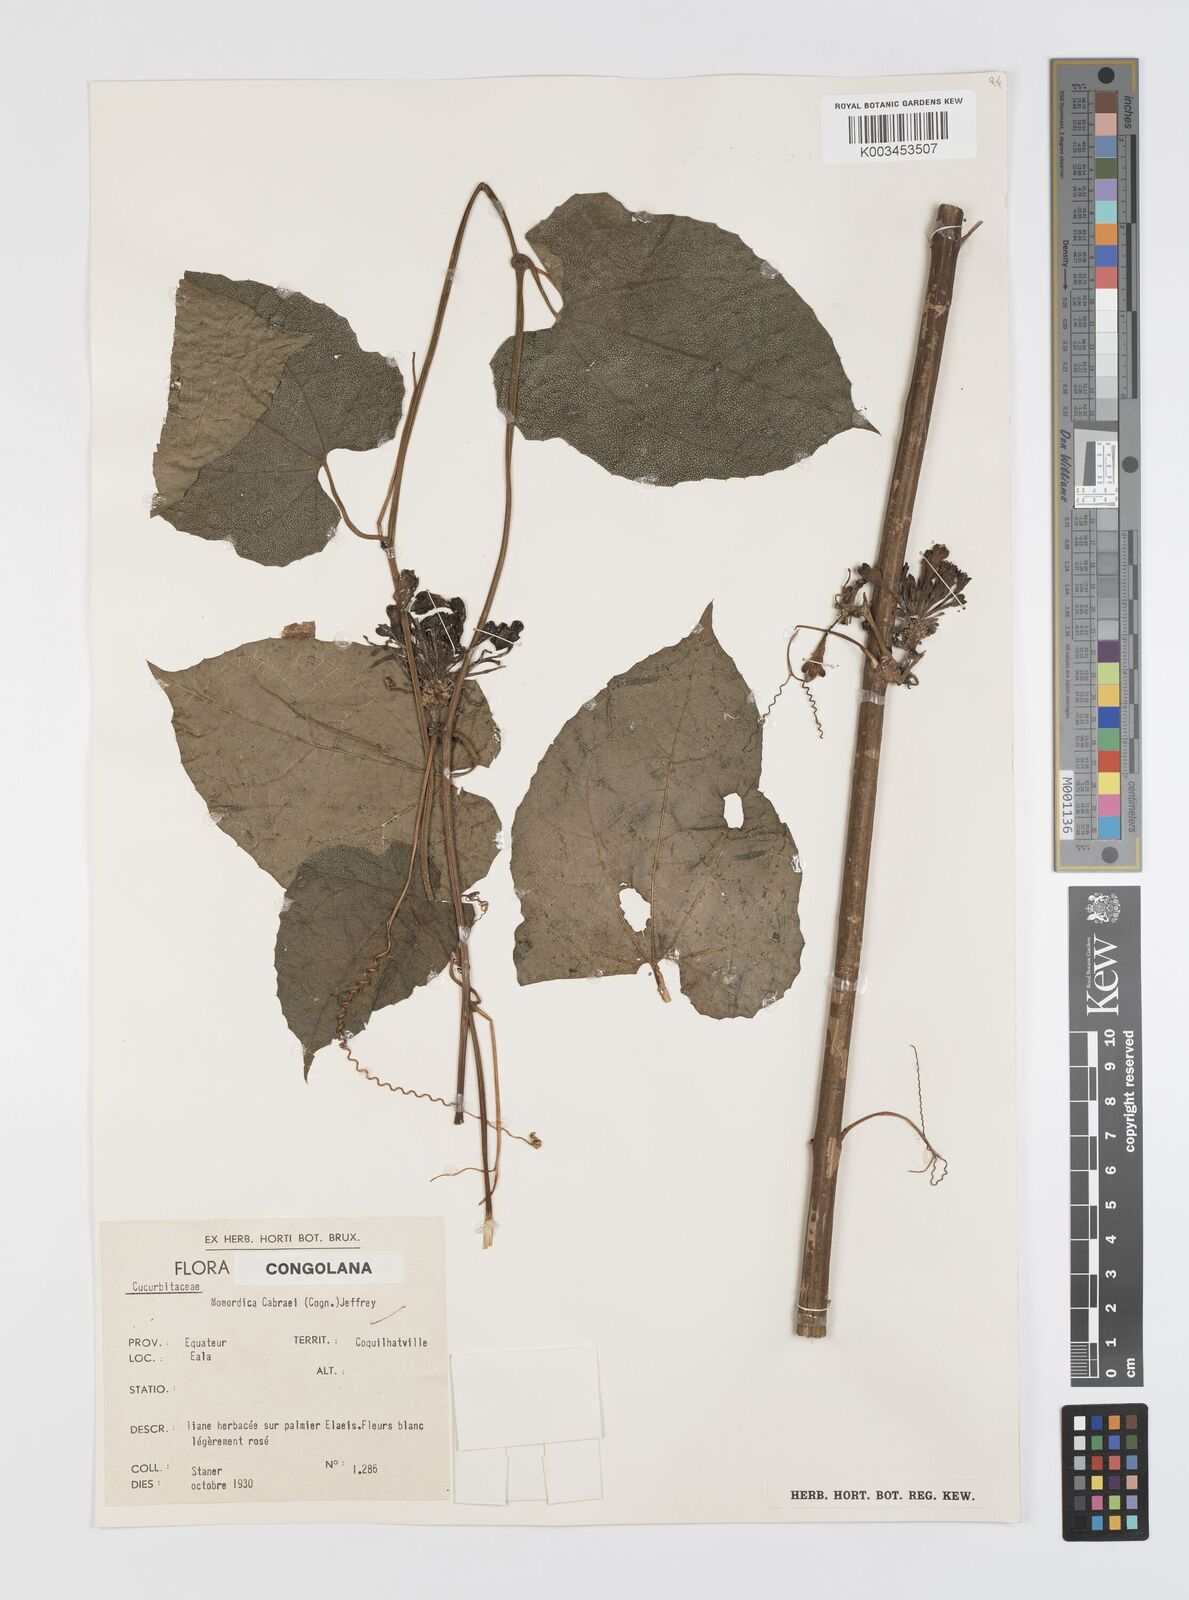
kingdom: Plantae
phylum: Tracheophyta
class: Magnoliopsida
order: Cucurbitales
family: Cucurbitaceae
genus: Momordica
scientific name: Momordica cabrae
